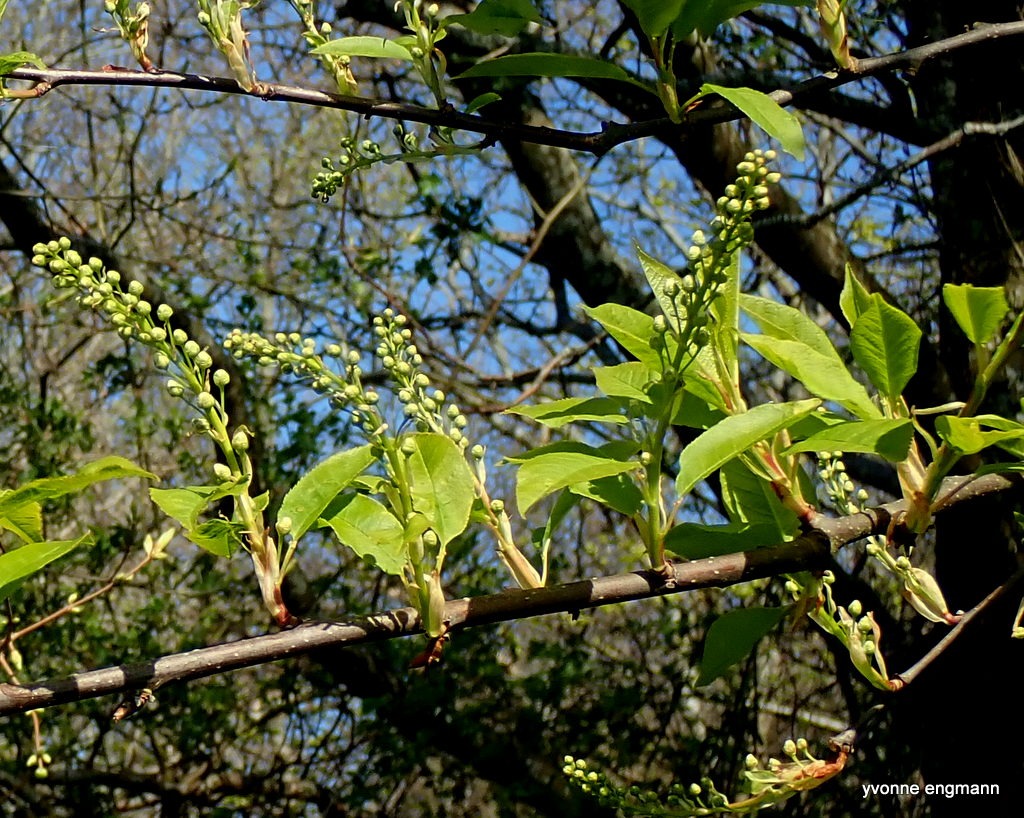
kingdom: Plantae
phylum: Tracheophyta
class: Magnoliopsida
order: Rosales
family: Rosaceae
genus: Prunus
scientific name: Prunus padus
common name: Almindelig hæg
